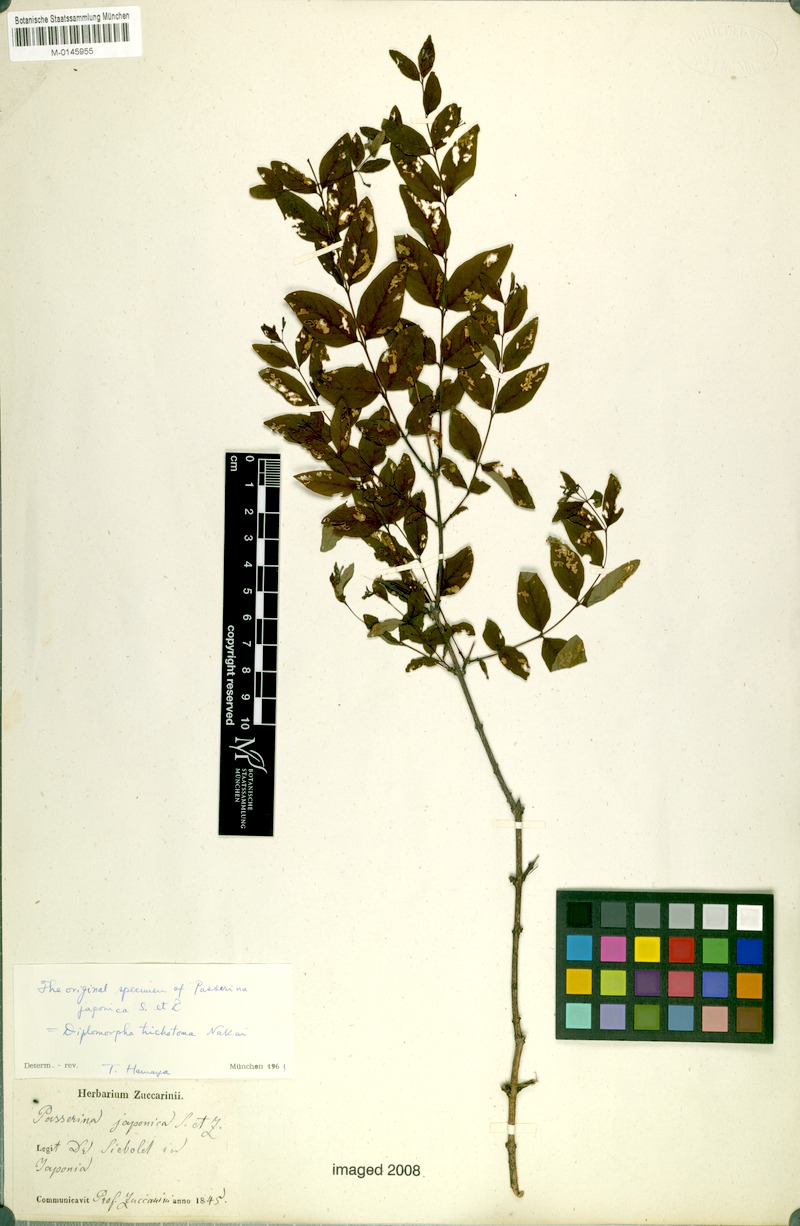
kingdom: Plantae
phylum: Tracheophyta
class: Magnoliopsida
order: Malvales
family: Thymelaeaceae
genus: Wikstroemia
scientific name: Wikstroemia trichotoma
